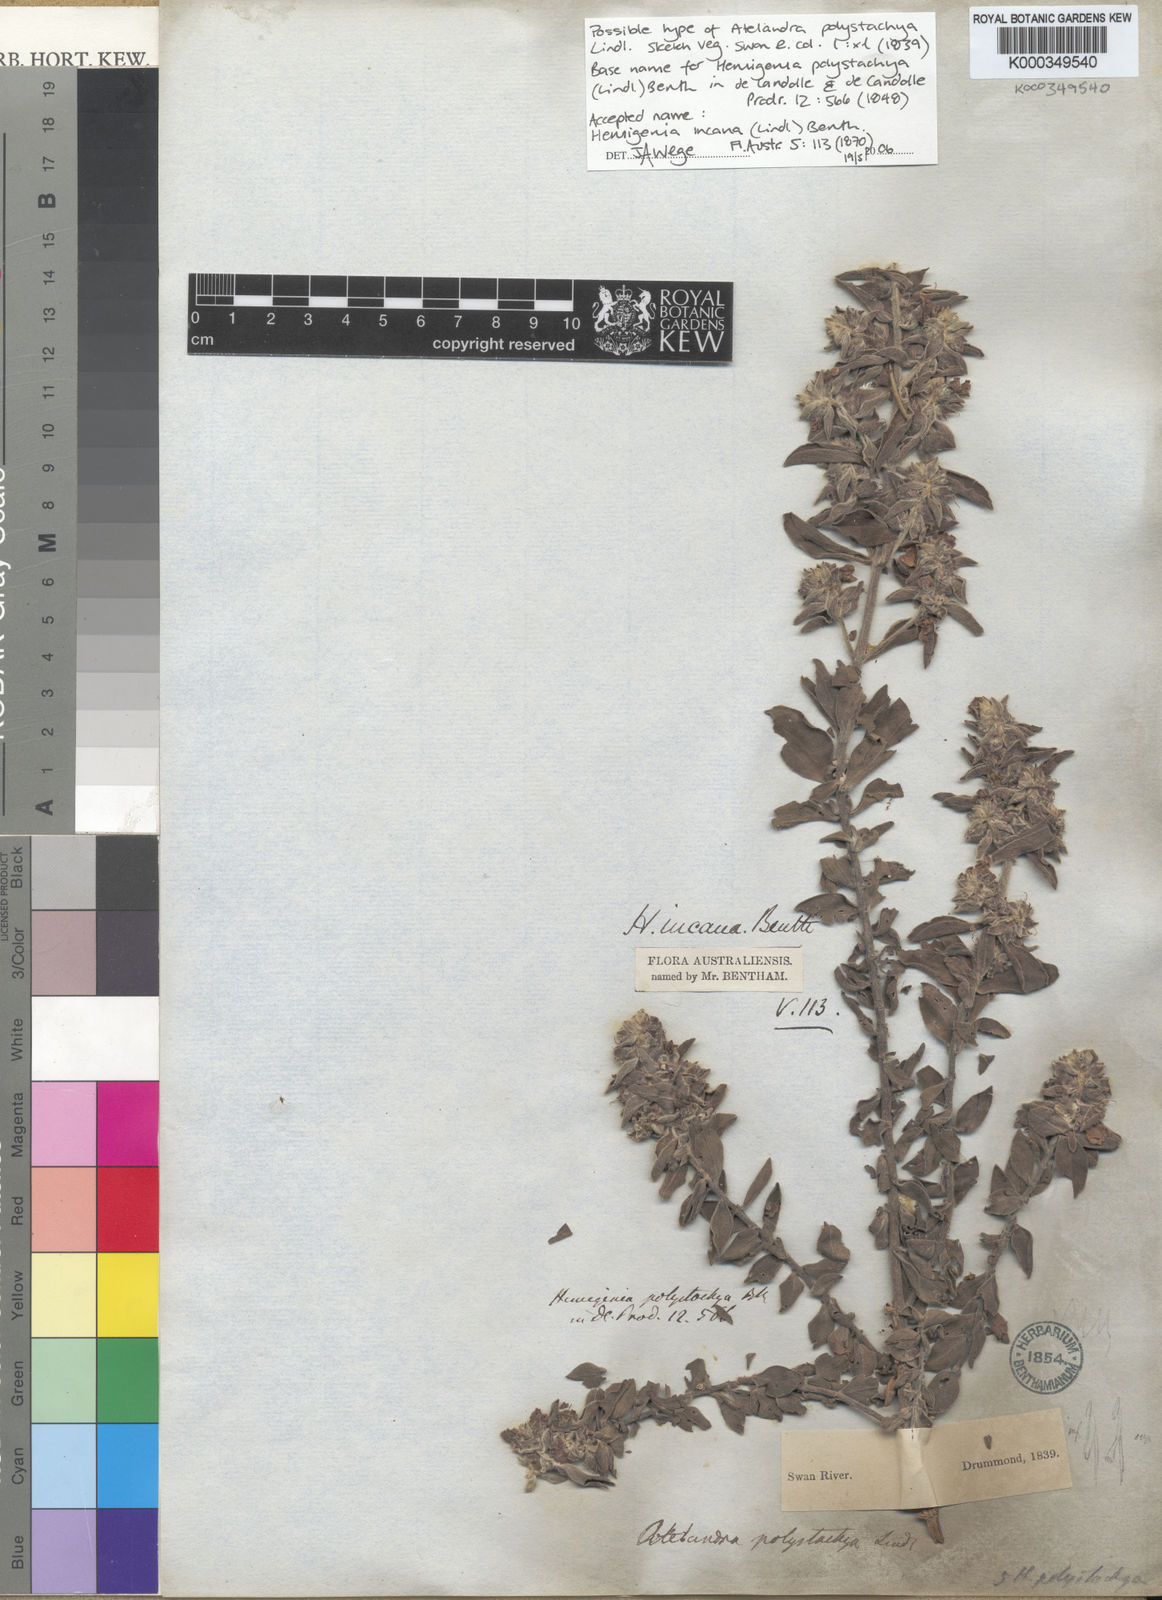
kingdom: Plantae
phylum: Tracheophyta
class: Magnoliopsida
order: Lamiales
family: Lamiaceae
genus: Hemigenia
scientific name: Hemigenia incana
